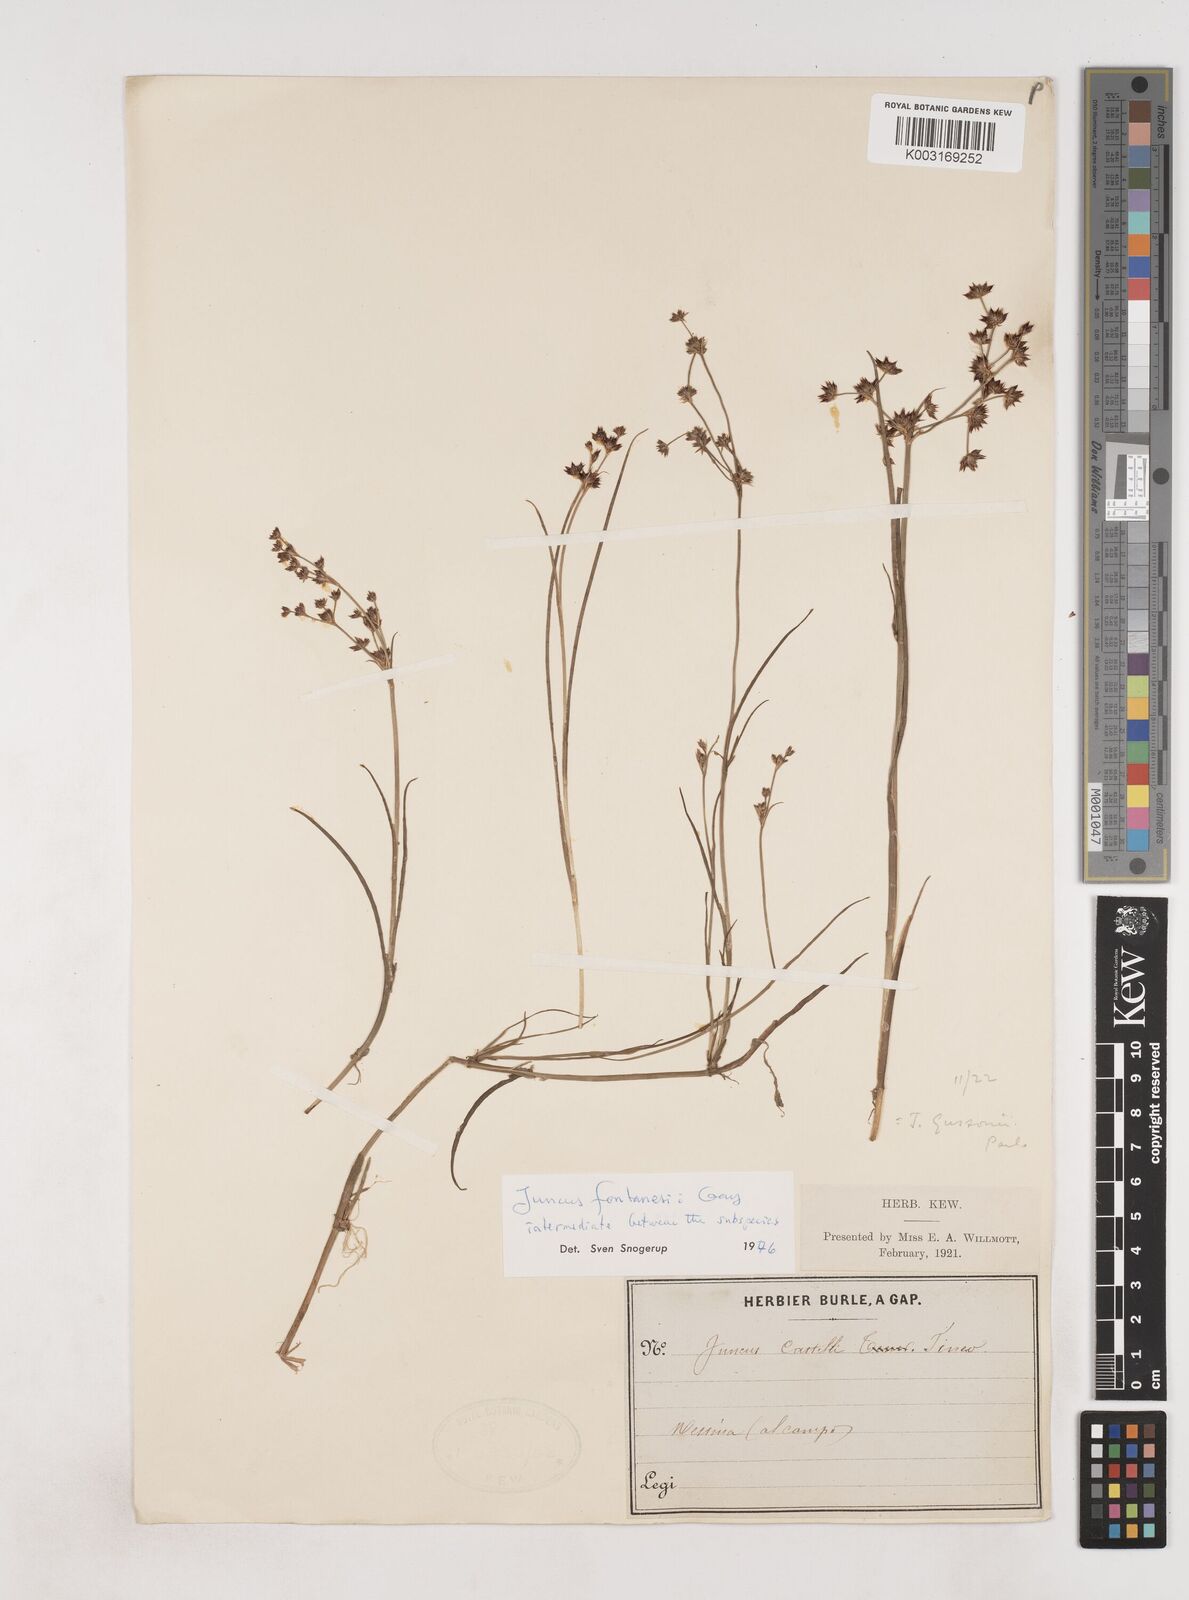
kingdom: Plantae
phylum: Tracheophyta
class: Liliopsida
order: Poales
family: Juncaceae
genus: Juncus
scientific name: Juncus fontanesii
